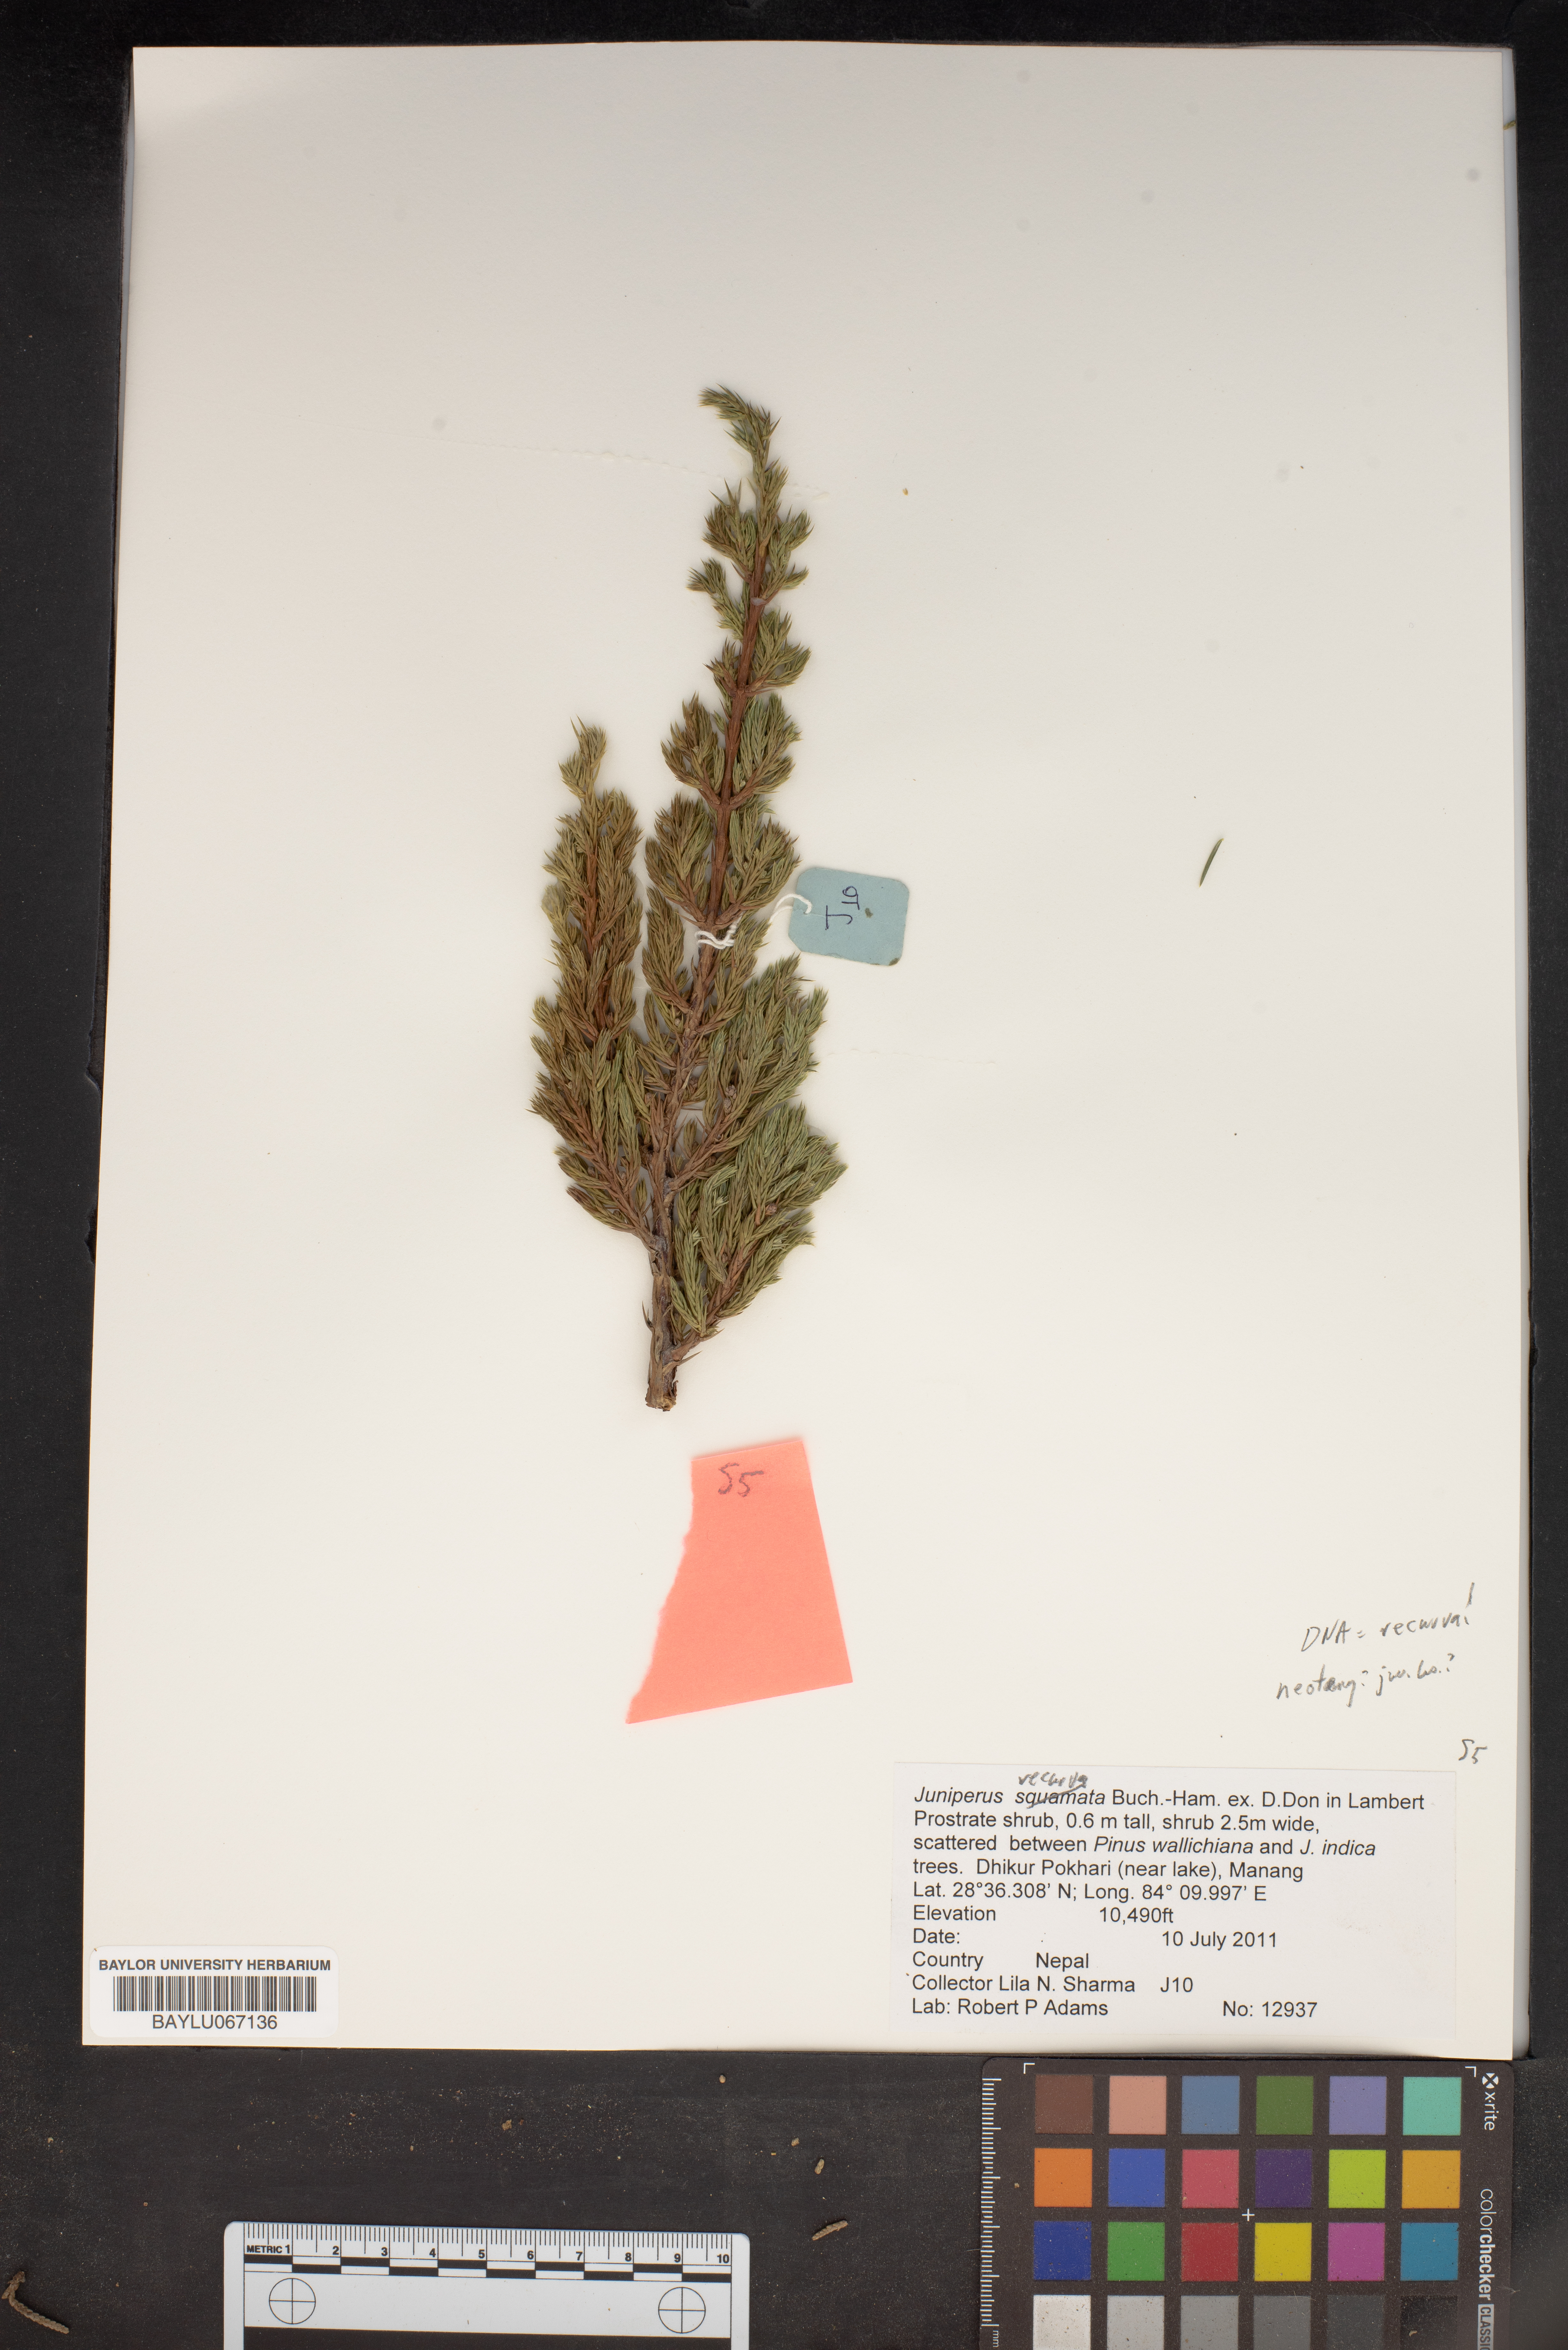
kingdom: Plantae
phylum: Tracheophyta
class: Pinopsida
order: Pinales
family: Cupressaceae
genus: Juniperus
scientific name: Juniperus recurva
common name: Drooping juniper
